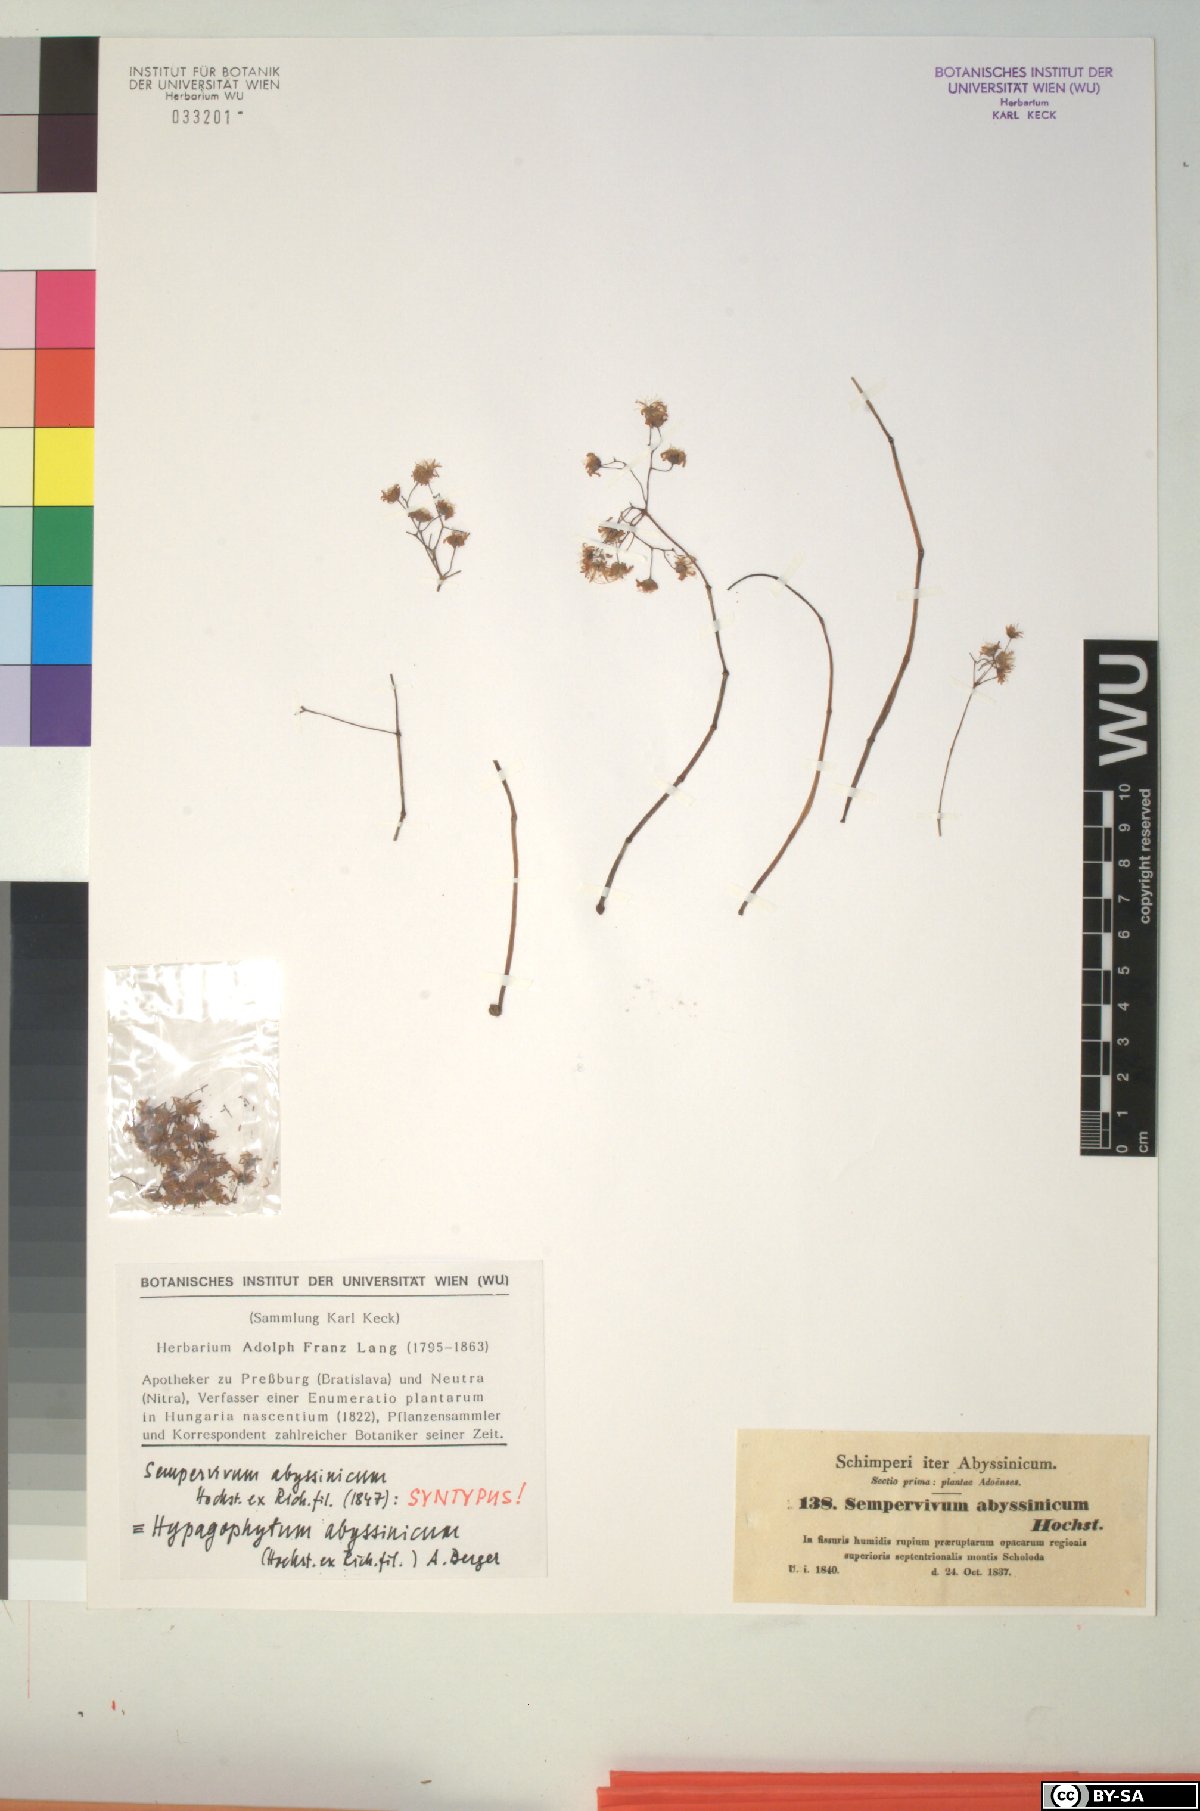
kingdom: Plantae
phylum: Tracheophyta
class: Magnoliopsida
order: Saxifragales
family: Crassulaceae
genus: Hypagophytum
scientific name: Hypagophytum abyssinicum
